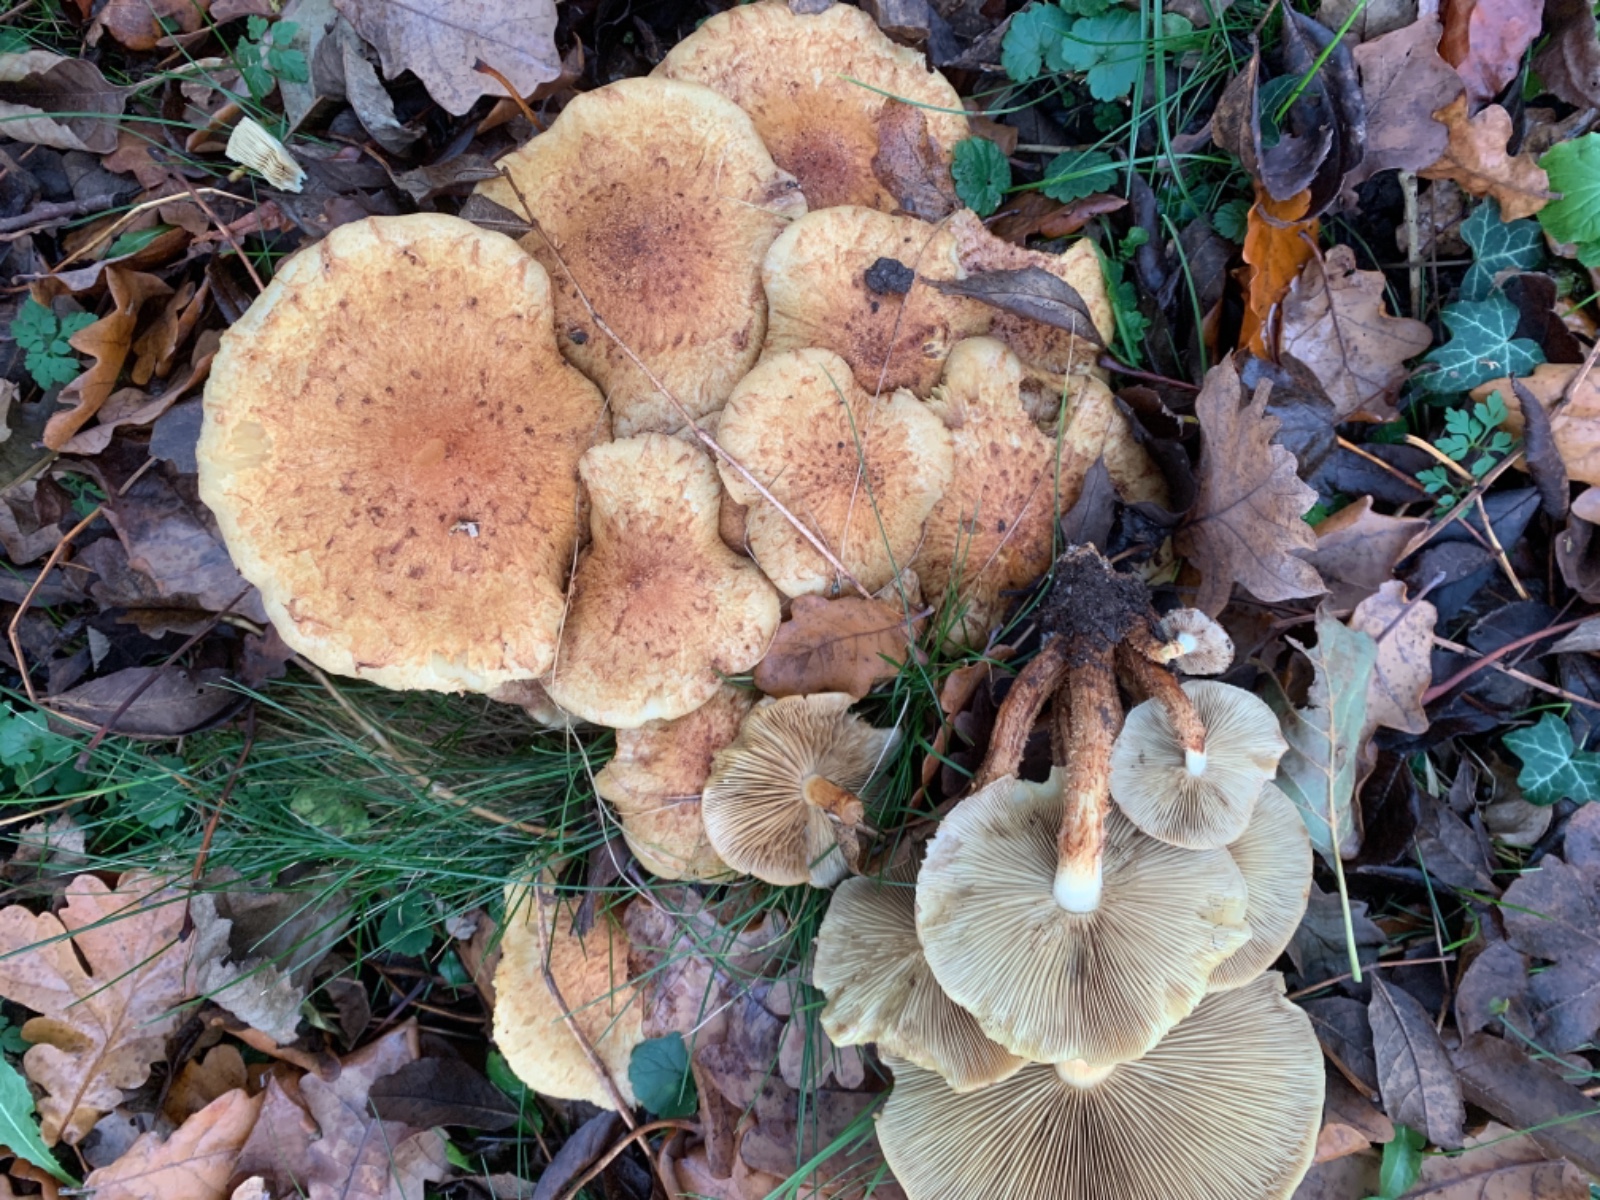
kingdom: Fungi
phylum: Basidiomycota
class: Agaricomycetes
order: Agaricales
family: Strophariaceae
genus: Pholiota
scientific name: Pholiota squarrosa
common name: krumskællet skælhat
